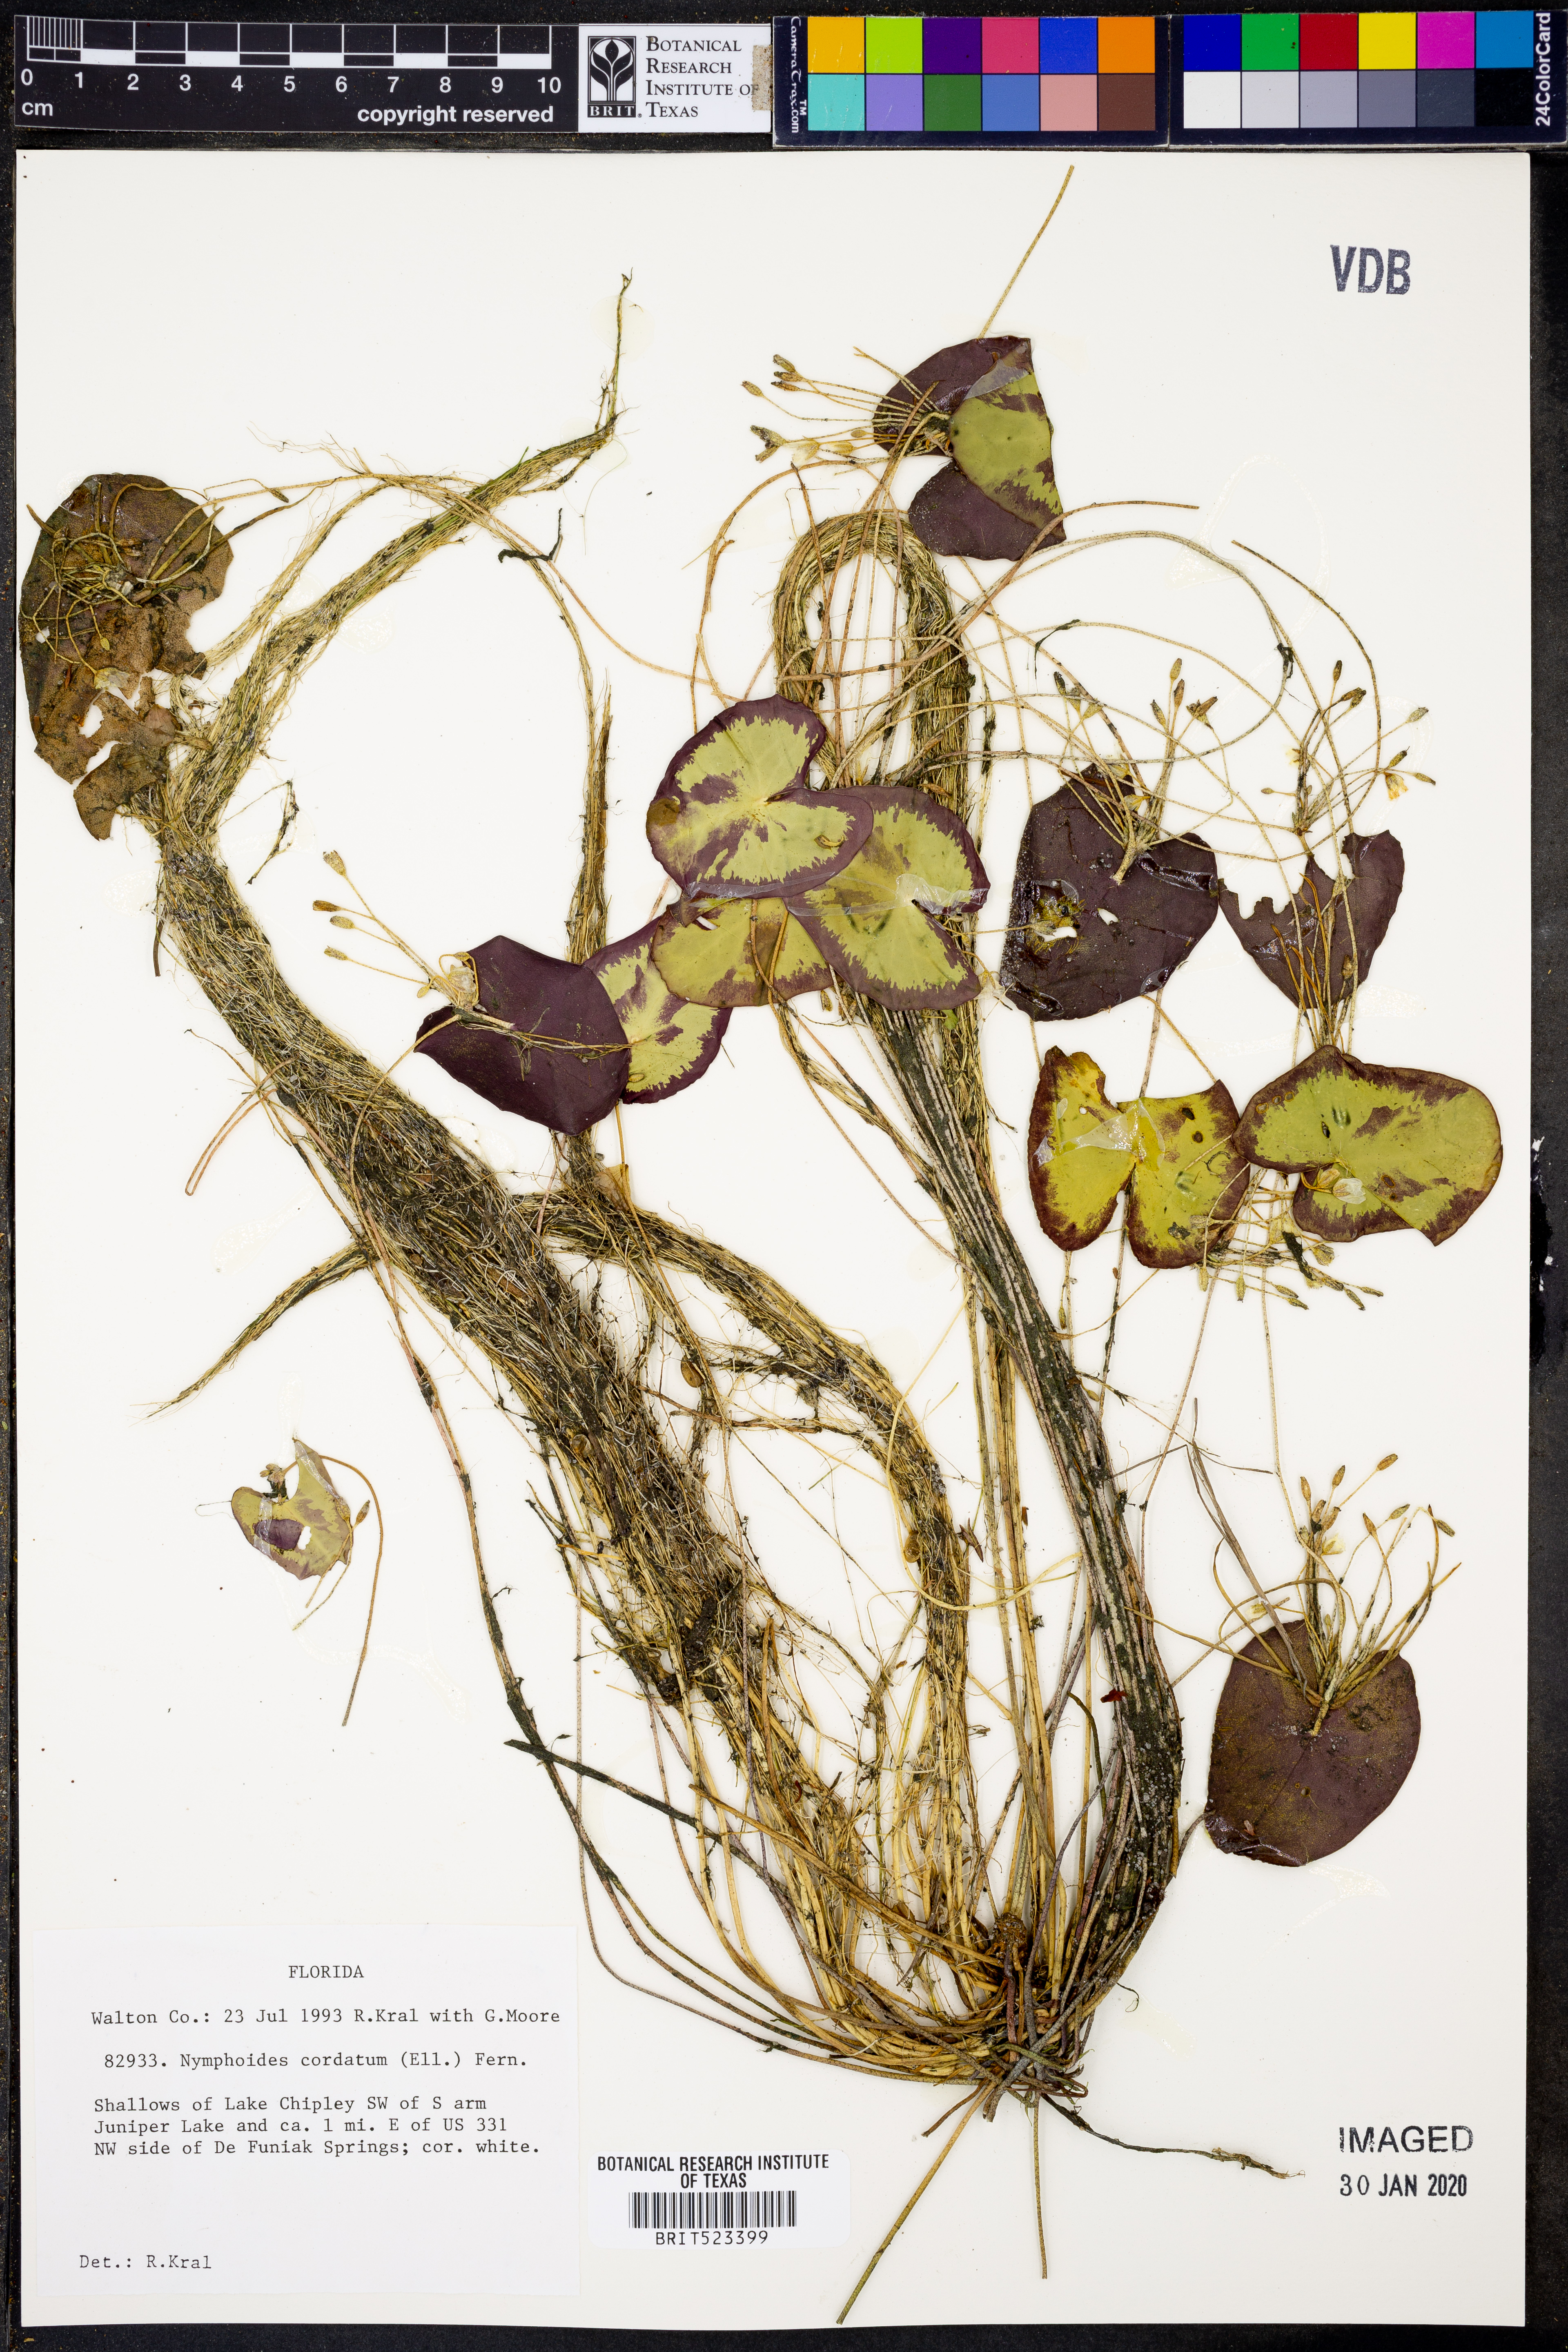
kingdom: Plantae
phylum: Tracheophyta
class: Magnoliopsida
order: Asterales
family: Menyanthaceae
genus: Nymphoides
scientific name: Nymphoides cordata
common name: Eight-angled floatingheart
